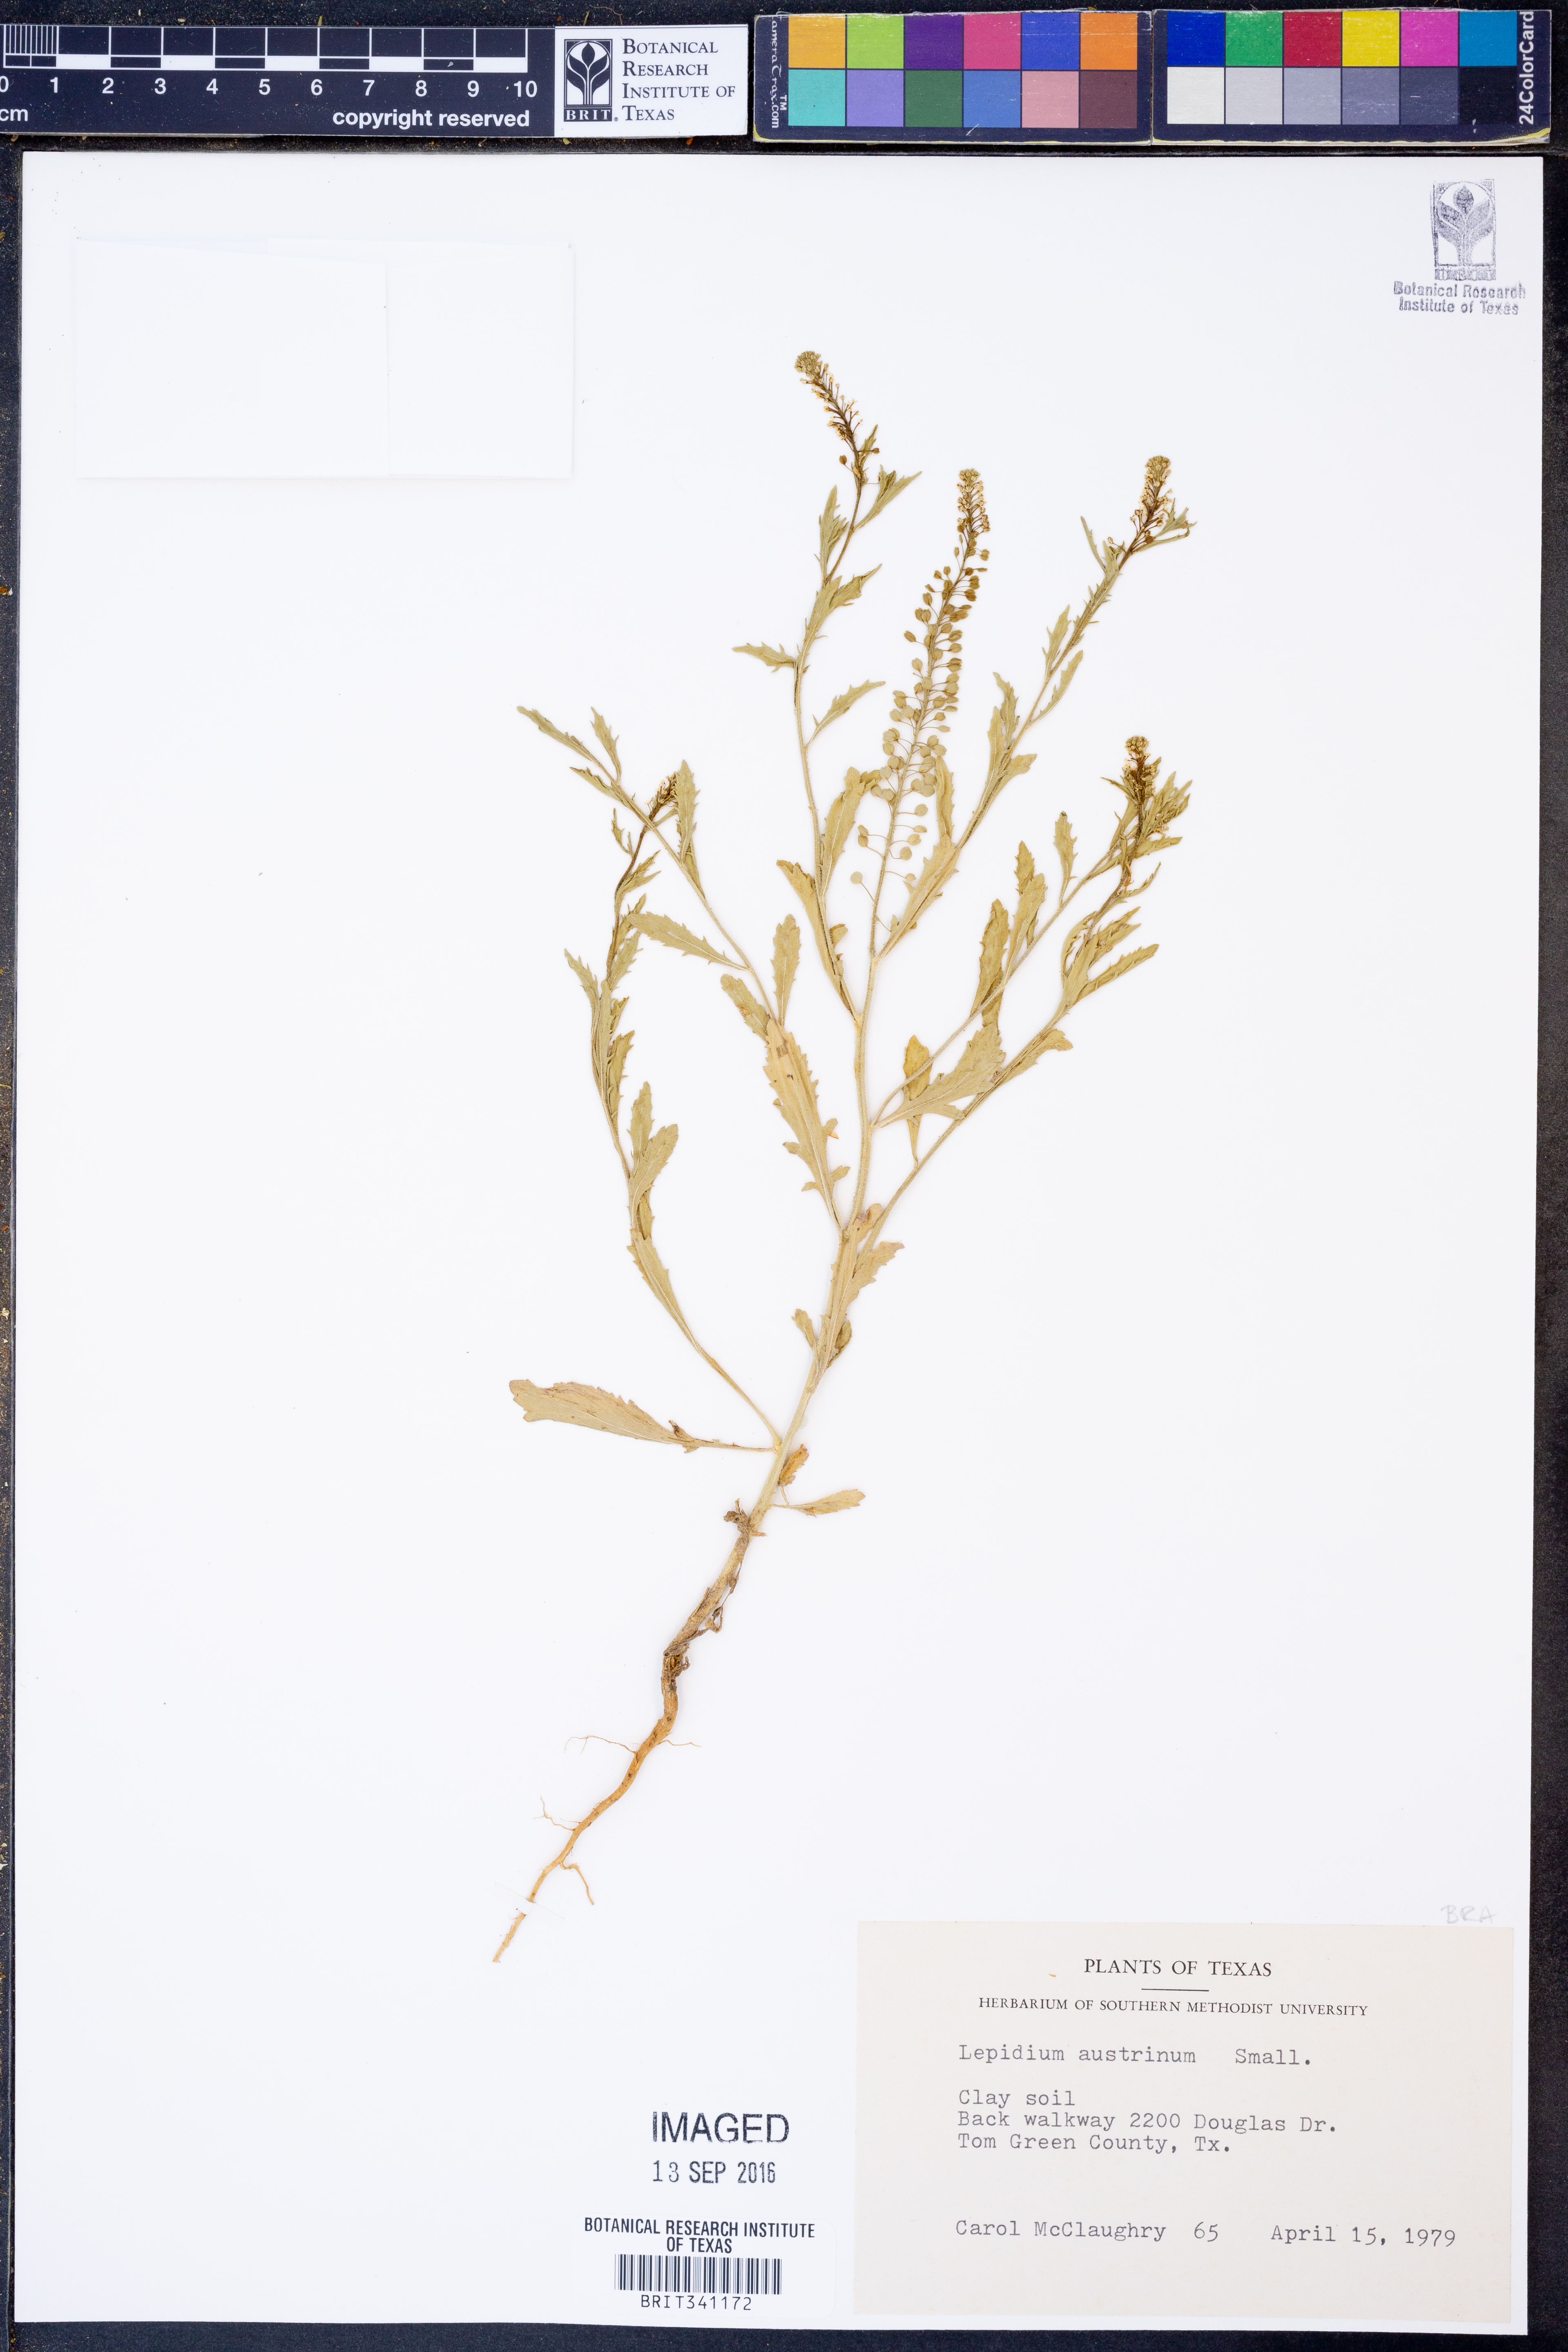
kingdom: Plantae
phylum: Tracheophyta
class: Magnoliopsida
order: Brassicales
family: Brassicaceae
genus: Lepidium
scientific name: Lepidium austrinum
